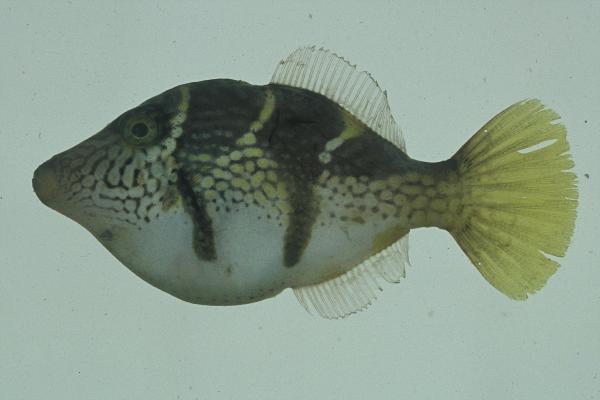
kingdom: Animalia
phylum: Chordata
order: Tetraodontiformes
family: Monacanthidae
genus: Paraluteres
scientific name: Paraluteres prionurus
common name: Black-saddled leatherjacket
